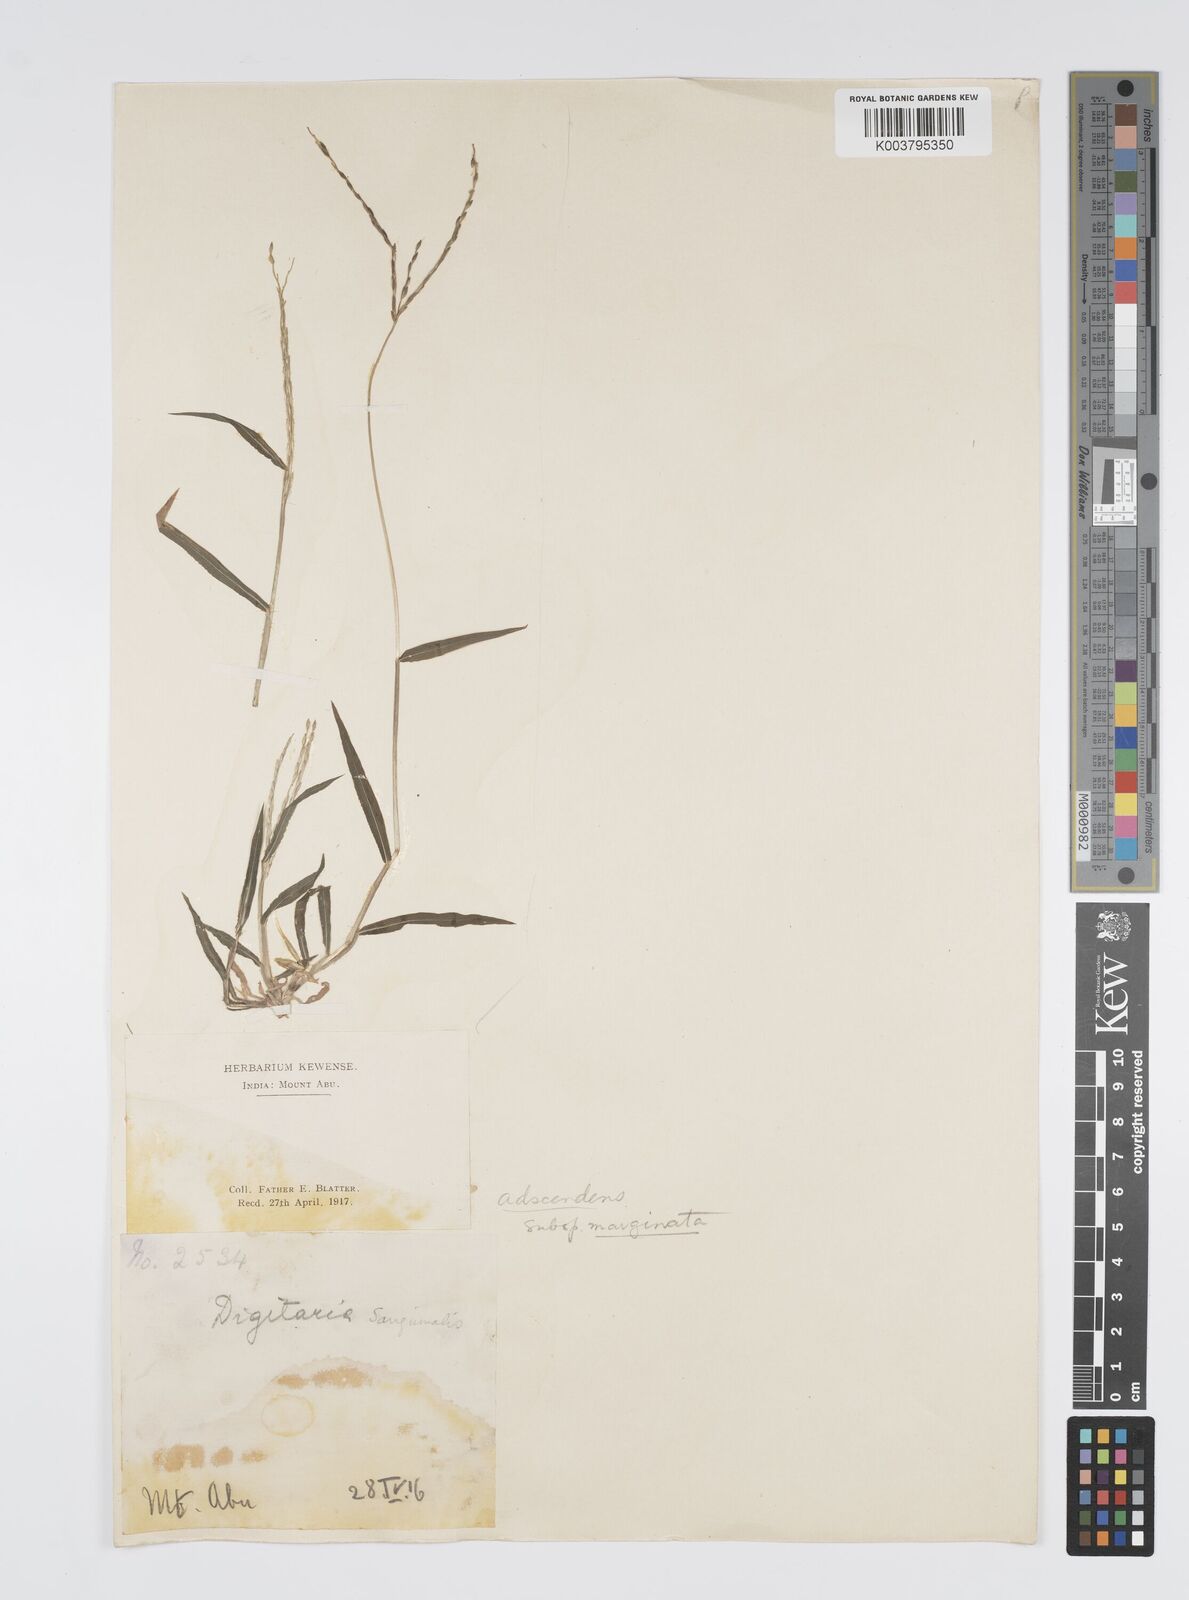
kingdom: Plantae
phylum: Tracheophyta
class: Liliopsida
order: Poales
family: Poaceae
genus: Digitaria
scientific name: Digitaria ciliaris
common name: Tropical finger-grass
